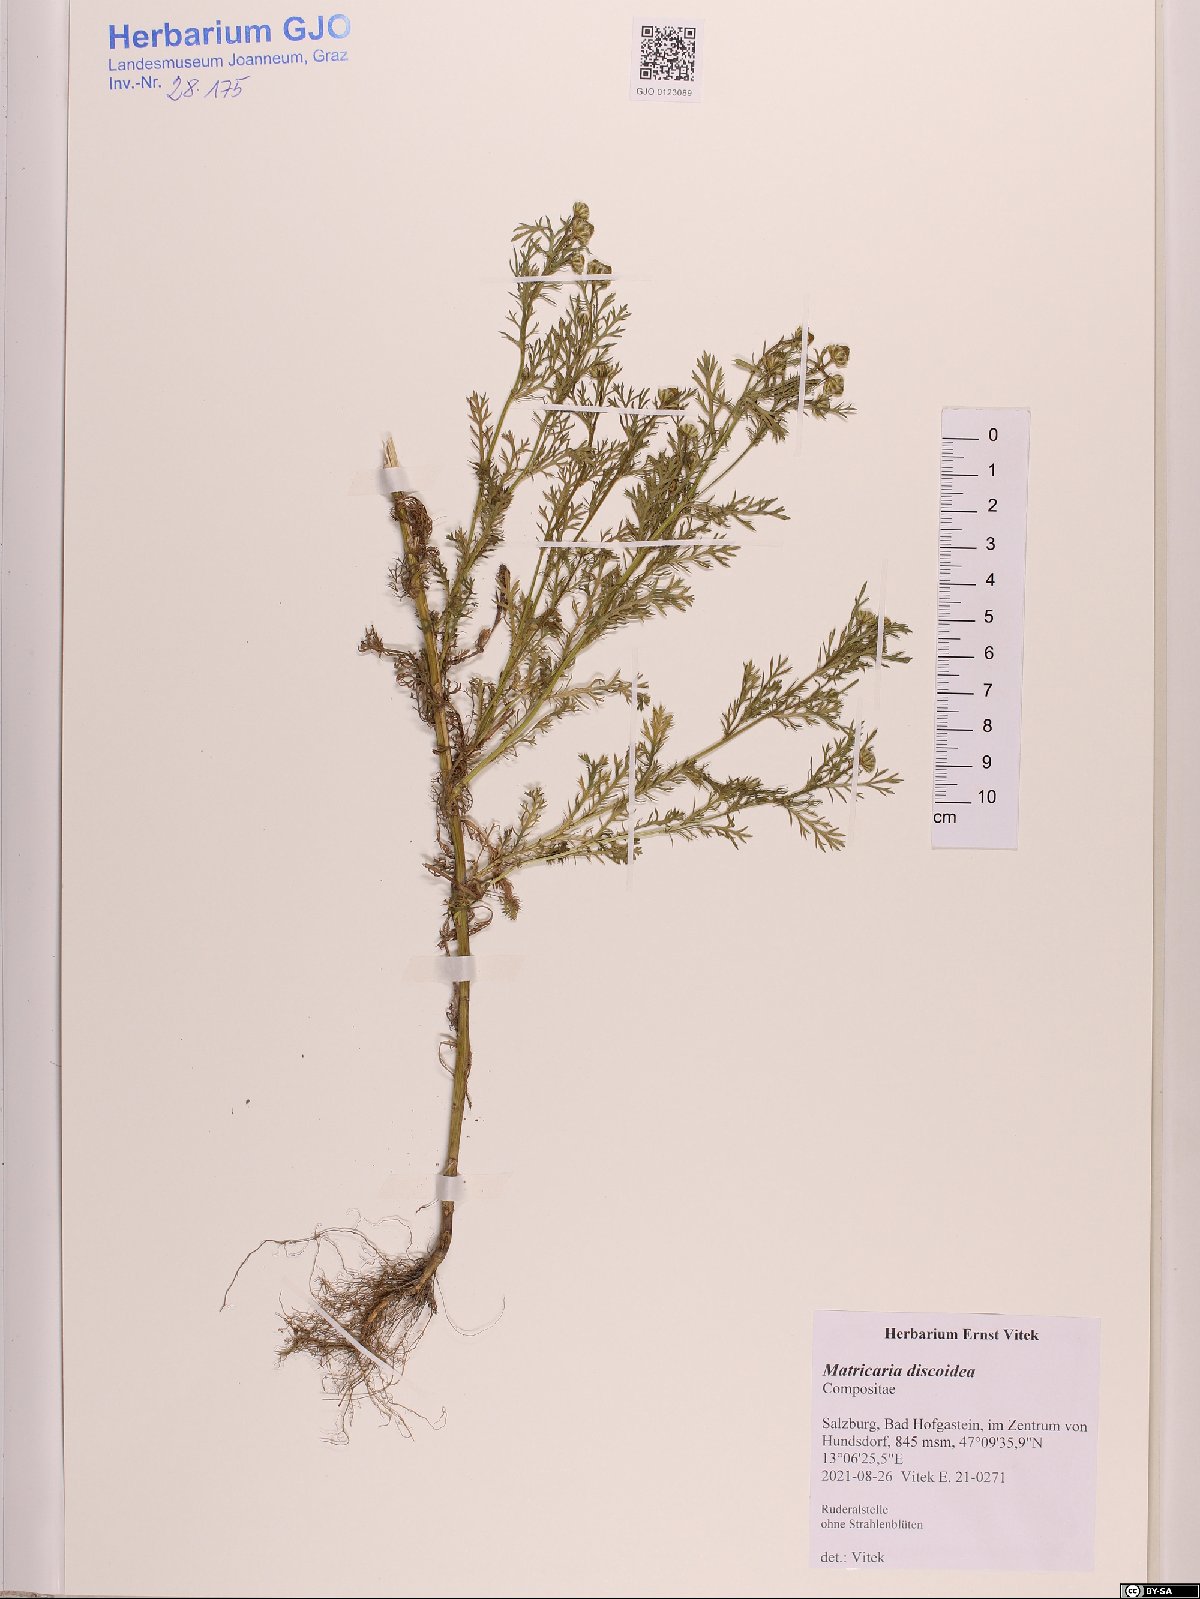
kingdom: Plantae
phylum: Tracheophyta
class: Magnoliopsida
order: Asterales
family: Asteraceae
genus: Matricaria
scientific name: Matricaria discoidea
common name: Disc mayweed
